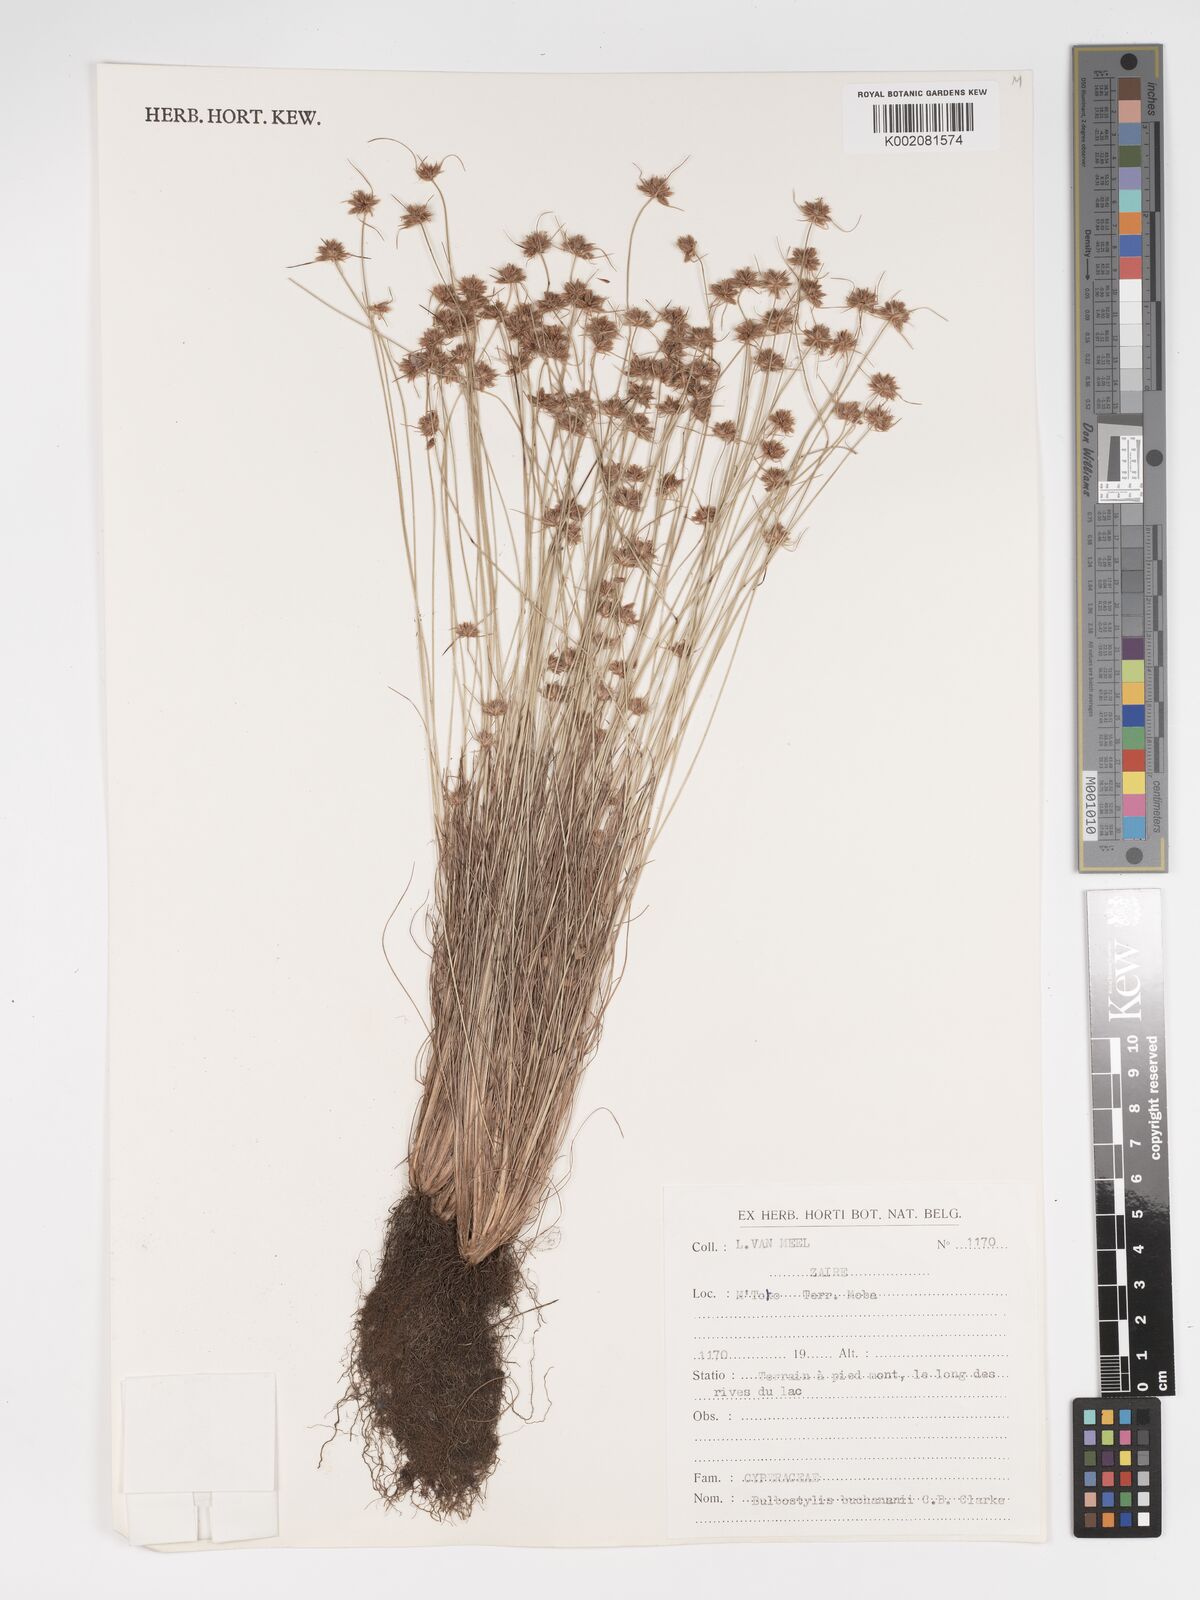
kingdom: Plantae
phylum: Tracheophyta
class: Liliopsida
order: Poales
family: Cyperaceae
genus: Bulbostylis
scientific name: Bulbostylis buchananii
